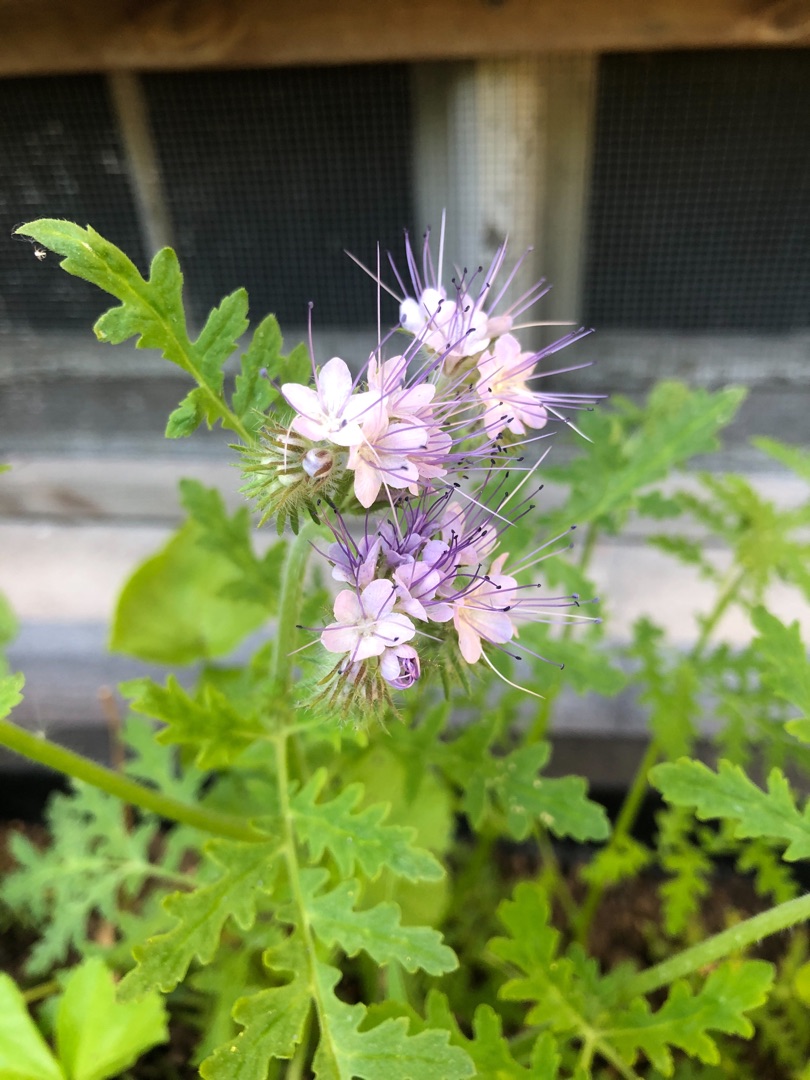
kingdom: Plantae
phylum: Tracheophyta
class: Magnoliopsida
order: Boraginales
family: Hydrophyllaceae
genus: Phacelia
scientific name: Phacelia tanacetifolia
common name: Honningurt
